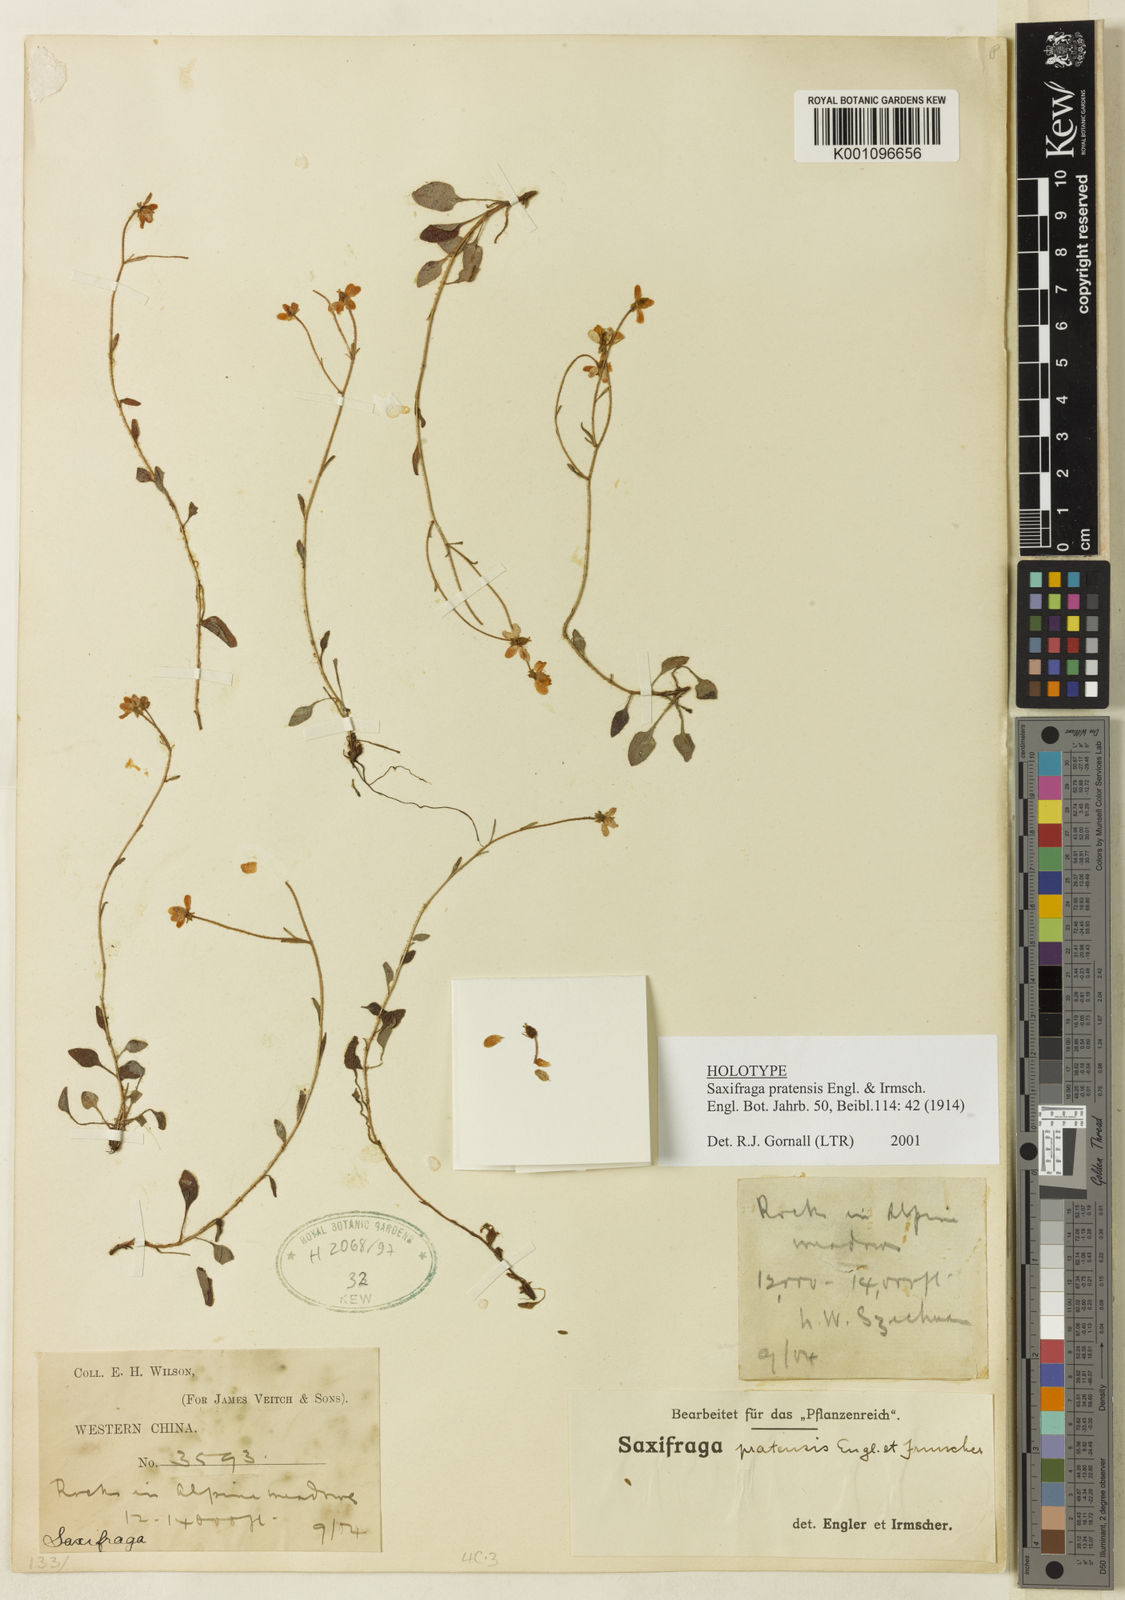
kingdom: Plantae
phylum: Tracheophyta
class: Magnoliopsida
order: Saxifragales
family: Saxifragaceae
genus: Saxifraga
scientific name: Saxifraga pratensis
